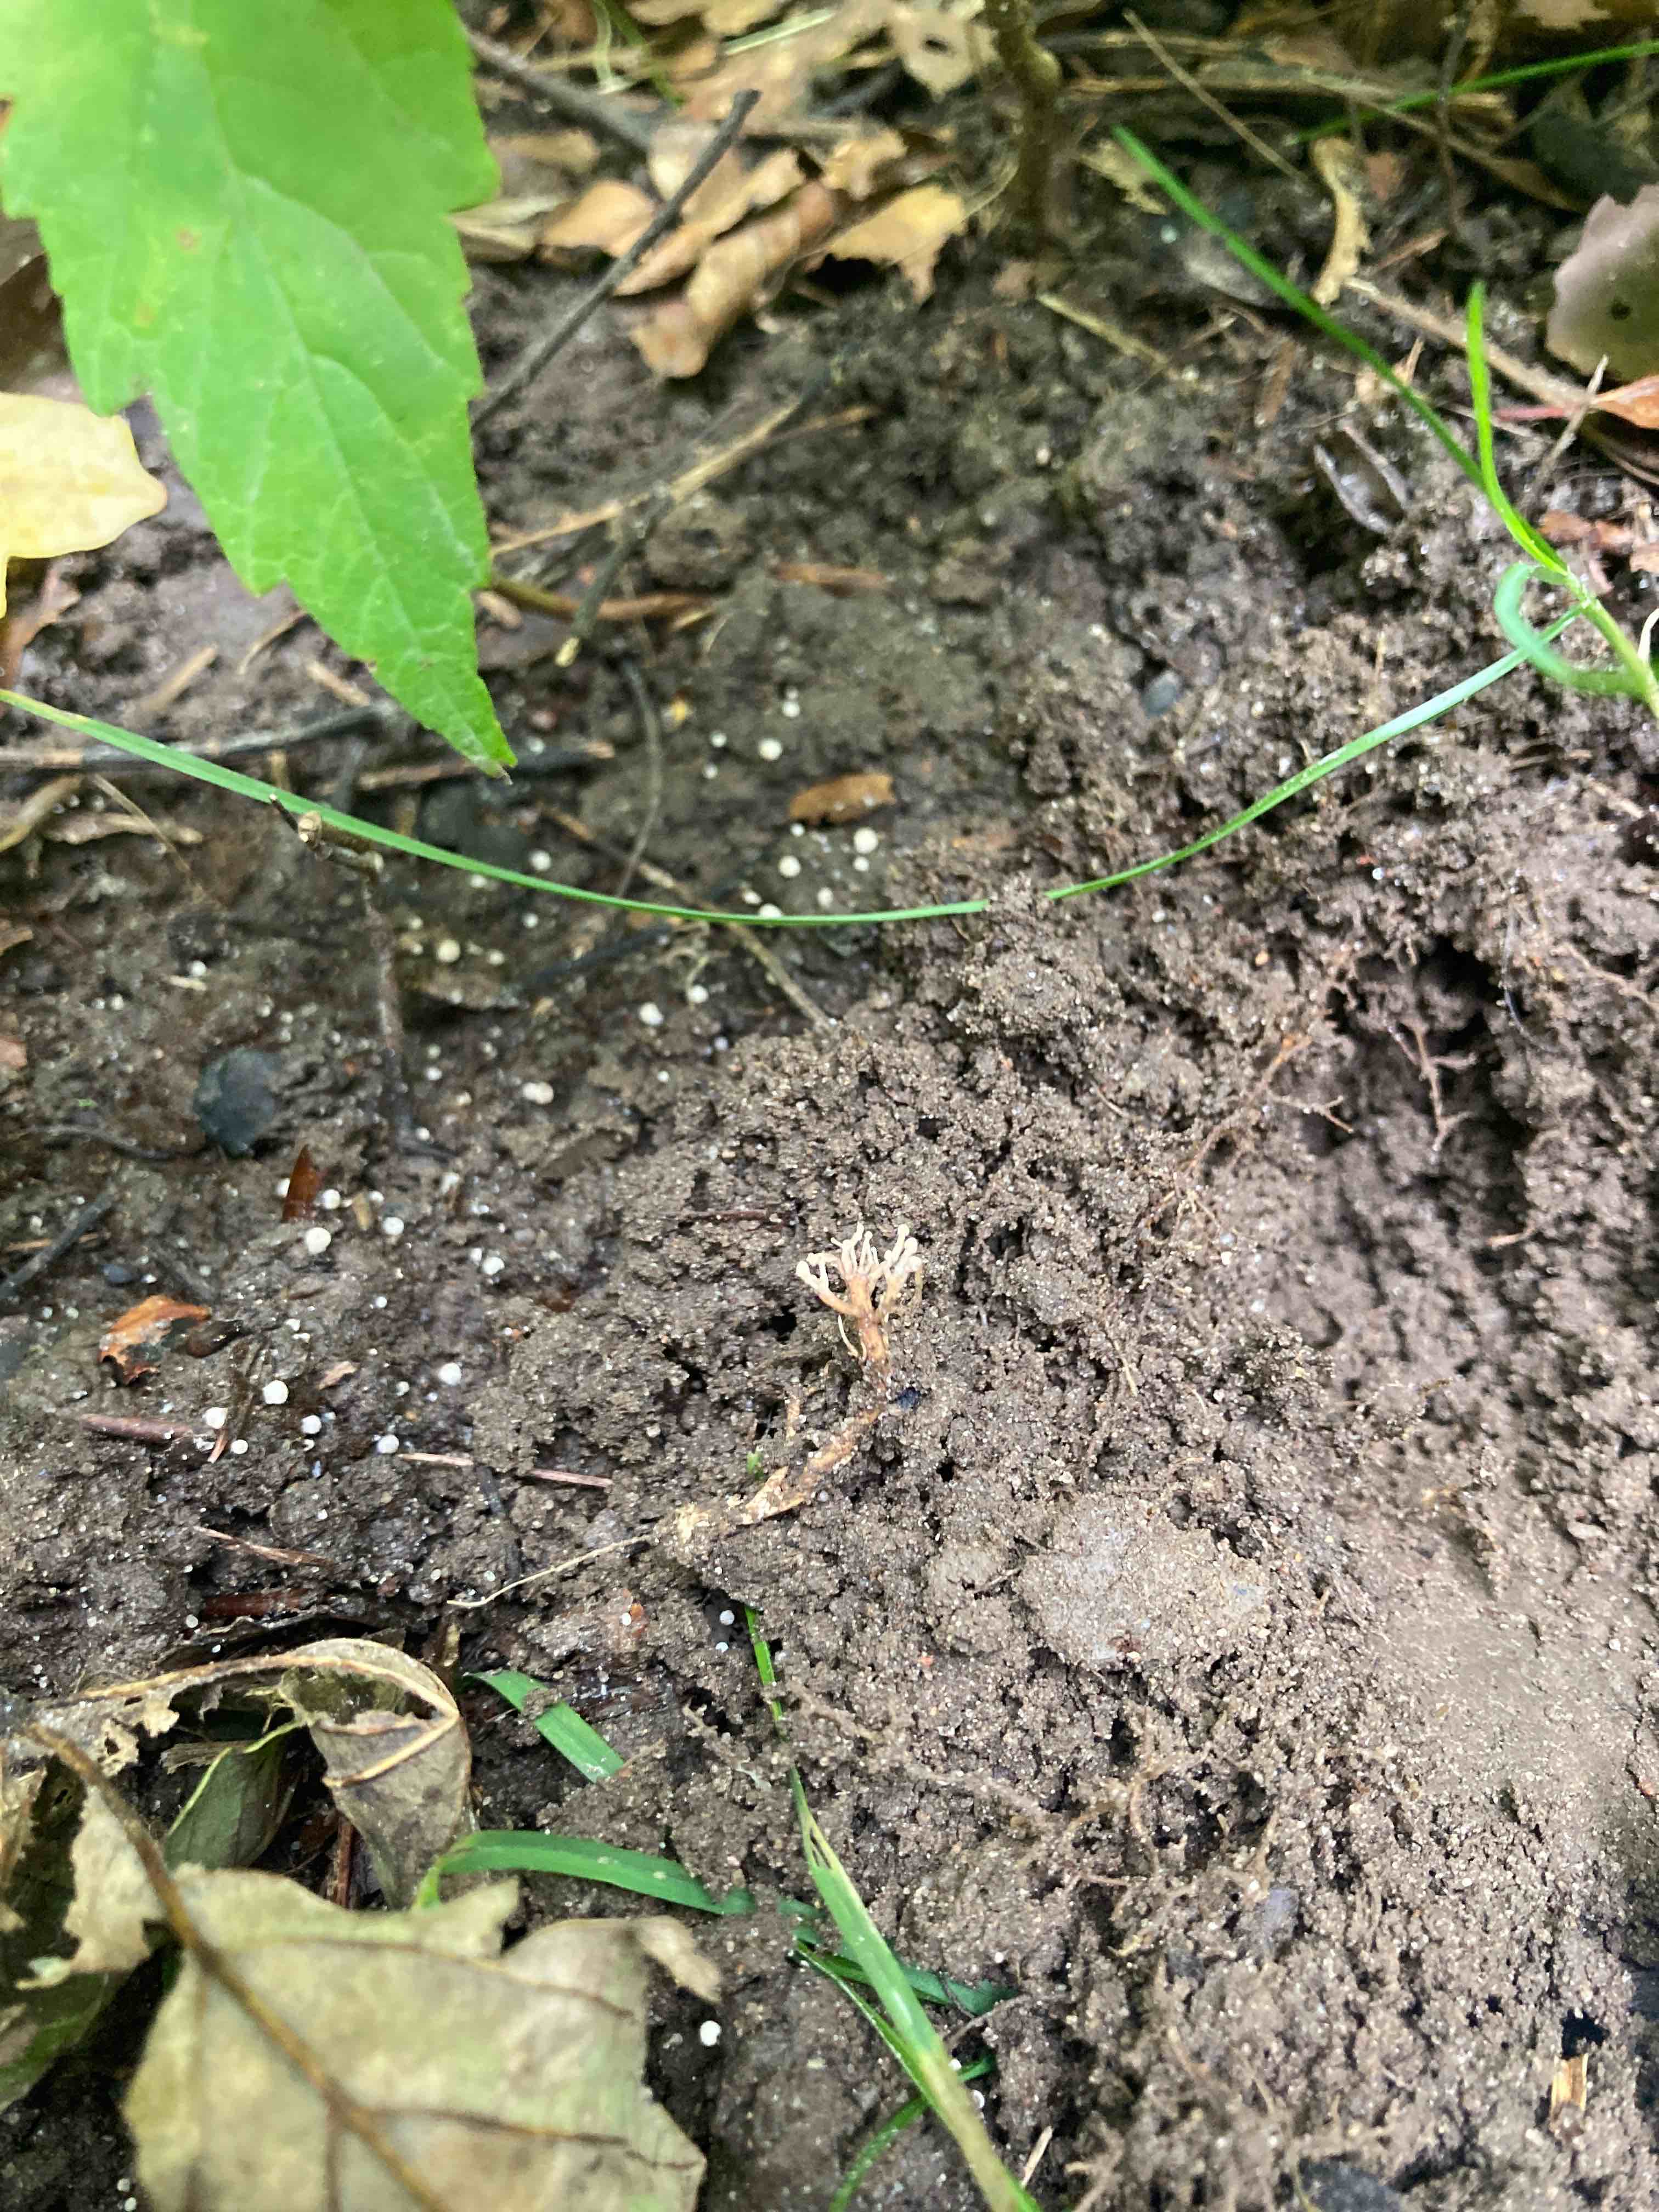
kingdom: Fungi
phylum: Ascomycota
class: Sordariomycetes
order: Hypocreales
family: Ophiocordycipitaceae
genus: Polycephalomyces
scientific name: Polycephalomyces ramosus
